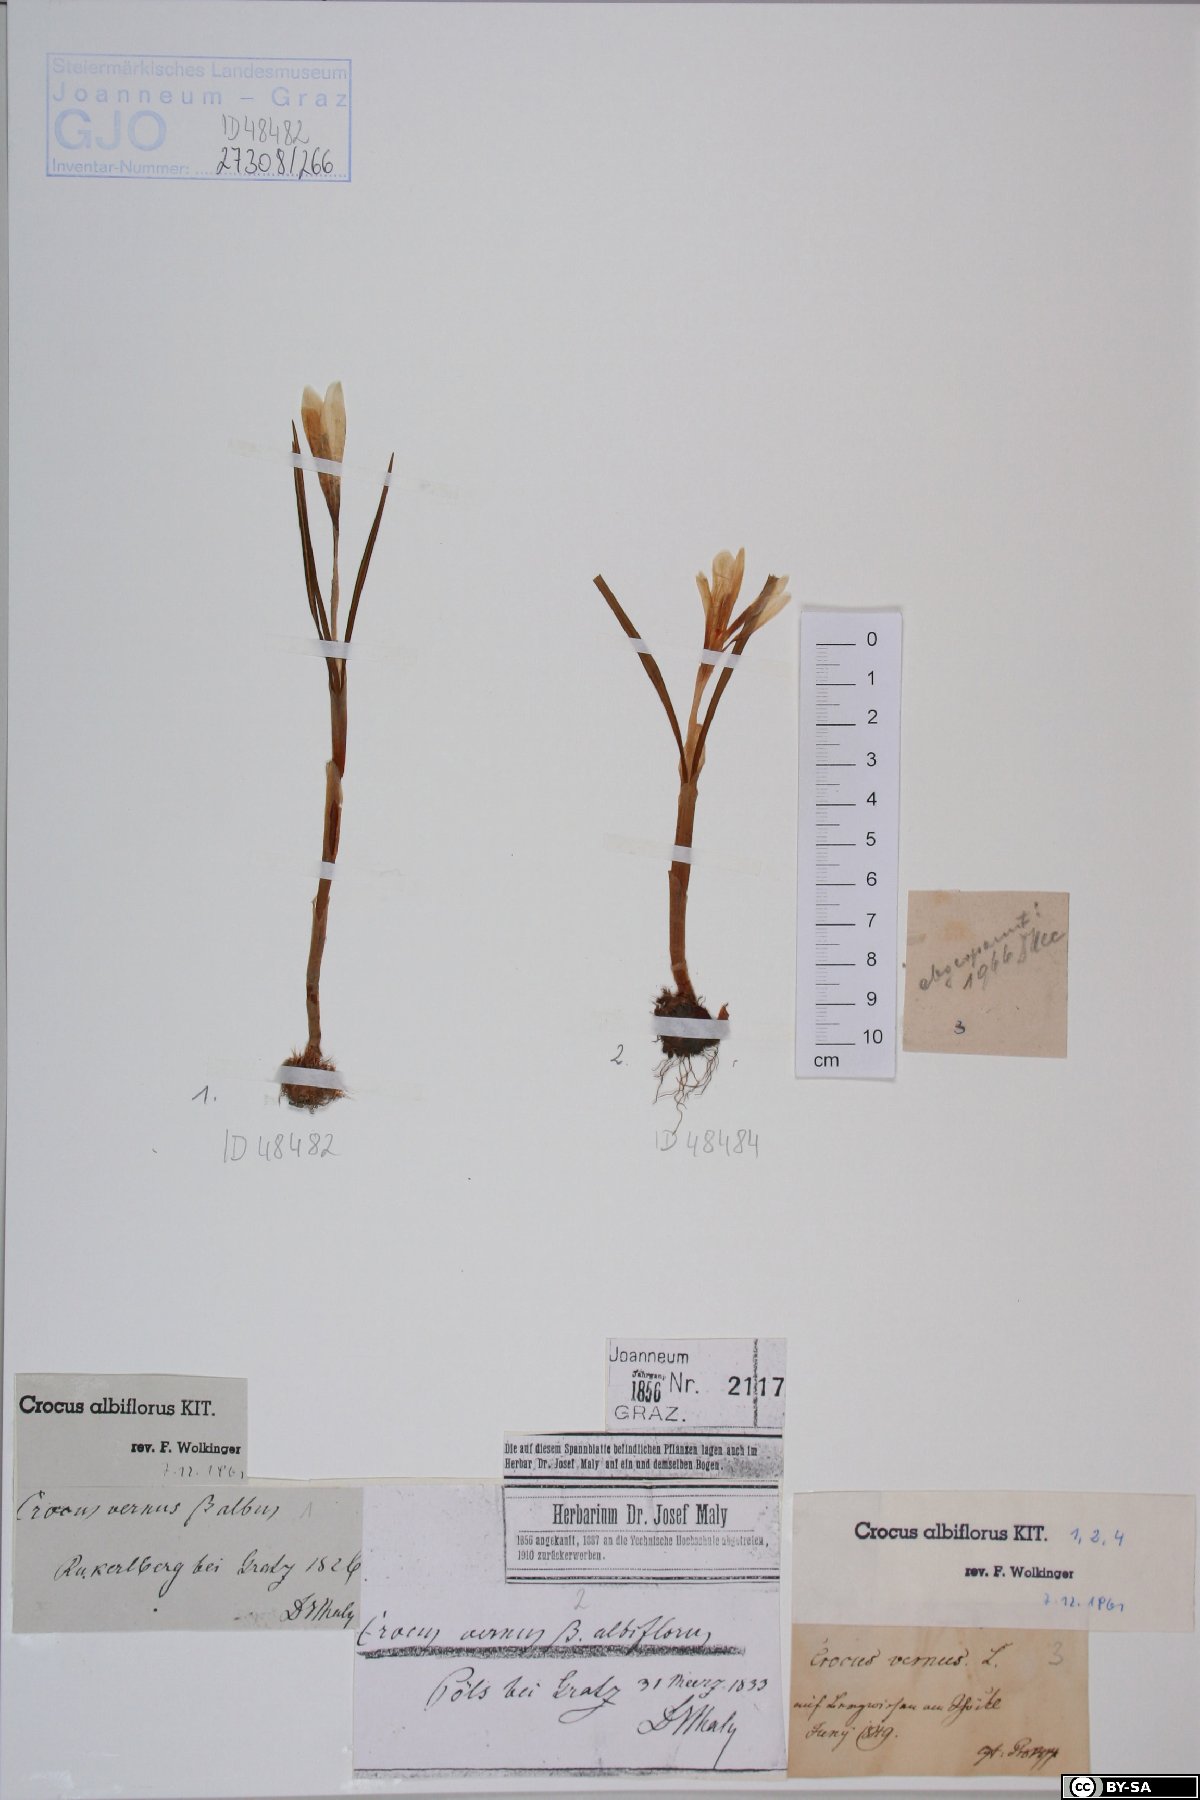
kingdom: Plantae
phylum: Tracheophyta
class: Liliopsida
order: Asparagales
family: Iridaceae
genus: Crocus
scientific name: Crocus vernus
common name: Spring crocus
